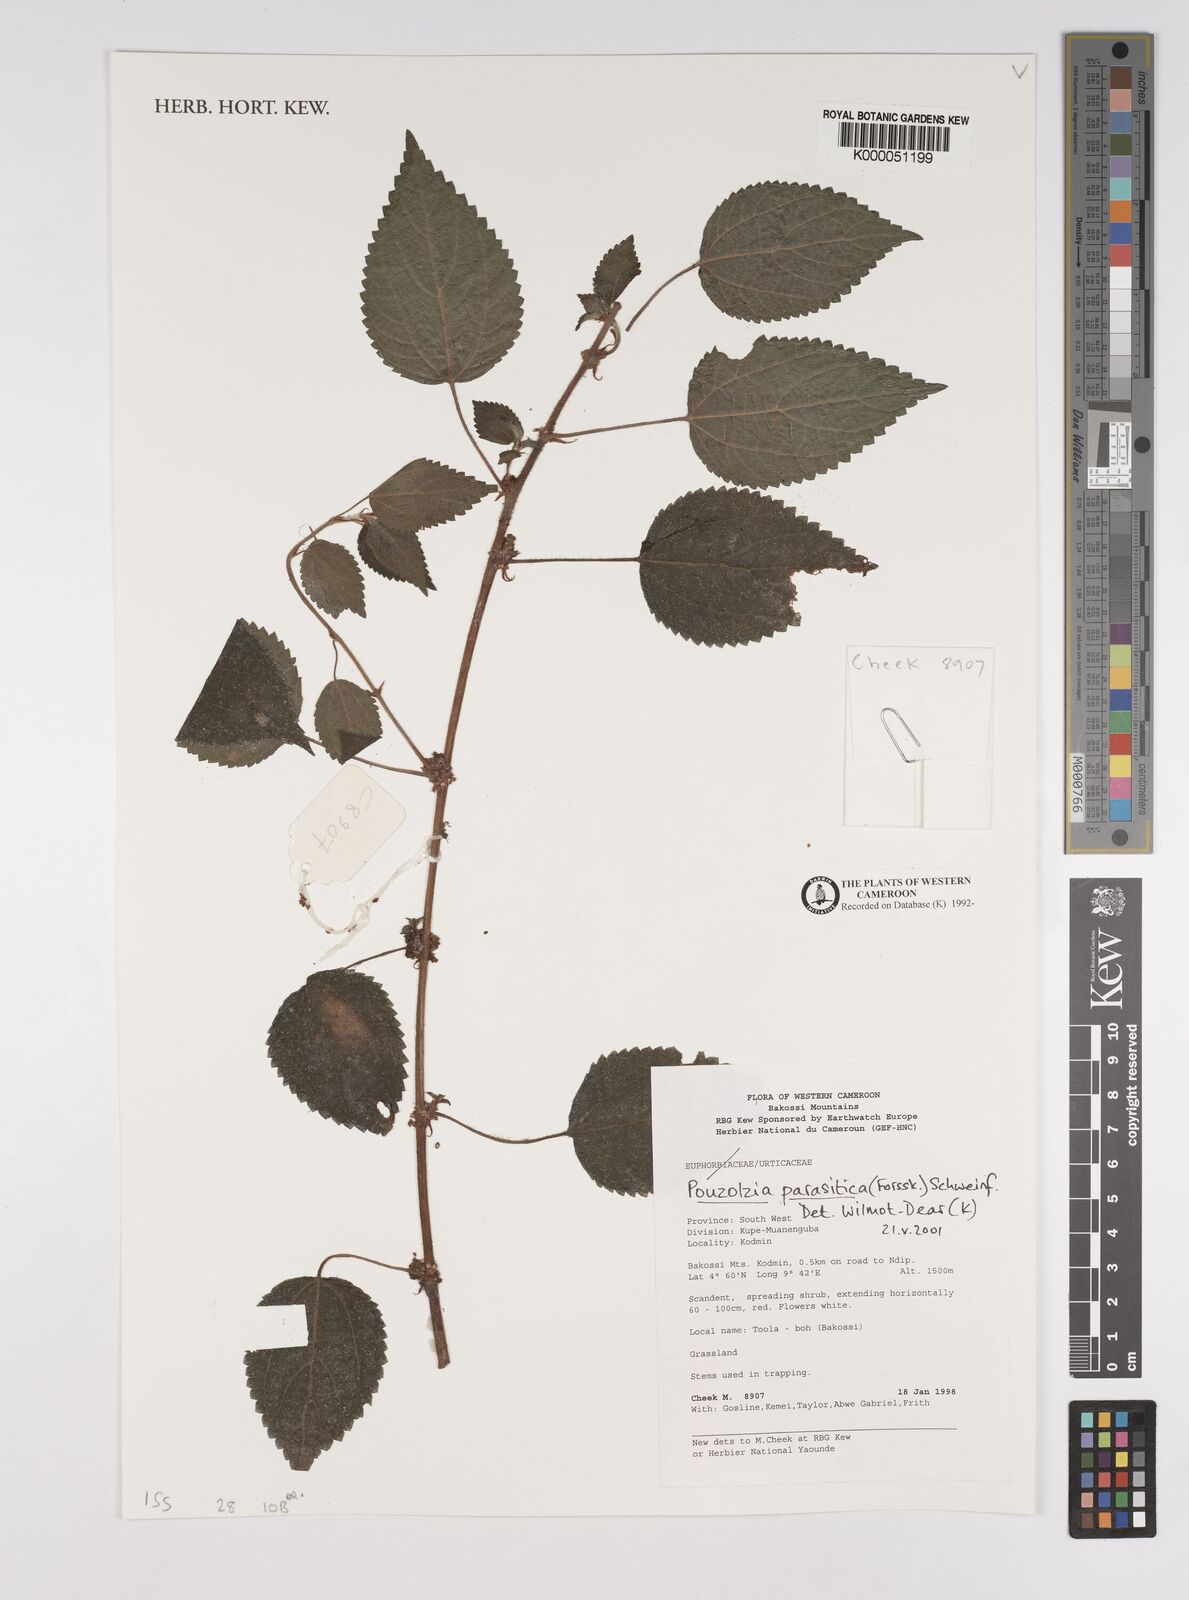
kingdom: Plantae
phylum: Tracheophyta
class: Magnoliopsida
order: Rosales
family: Urticaceae
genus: Pouzolzia
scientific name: Pouzolzia parasitica
